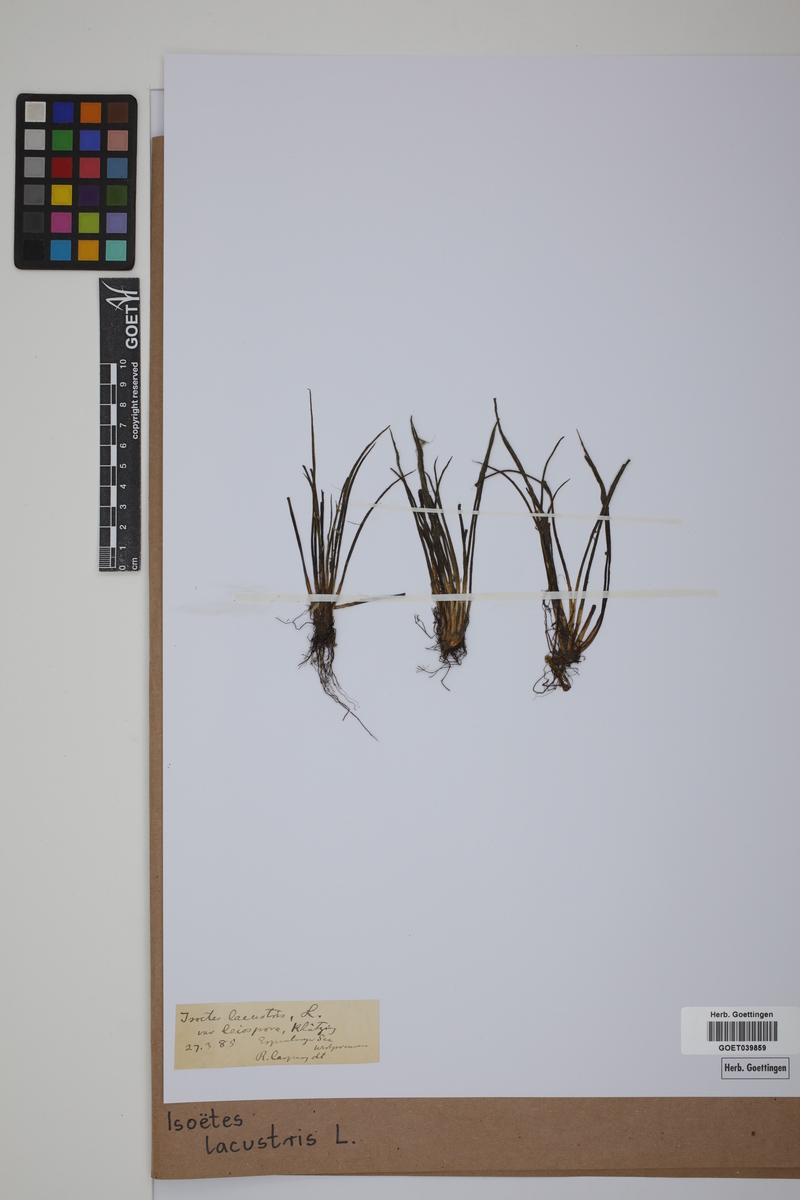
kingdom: Plantae
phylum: Tracheophyta
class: Lycopodiopsida
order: Isoetales
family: Isoetaceae
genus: Isoetes
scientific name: Isoetes lacustris
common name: Common quillwort
